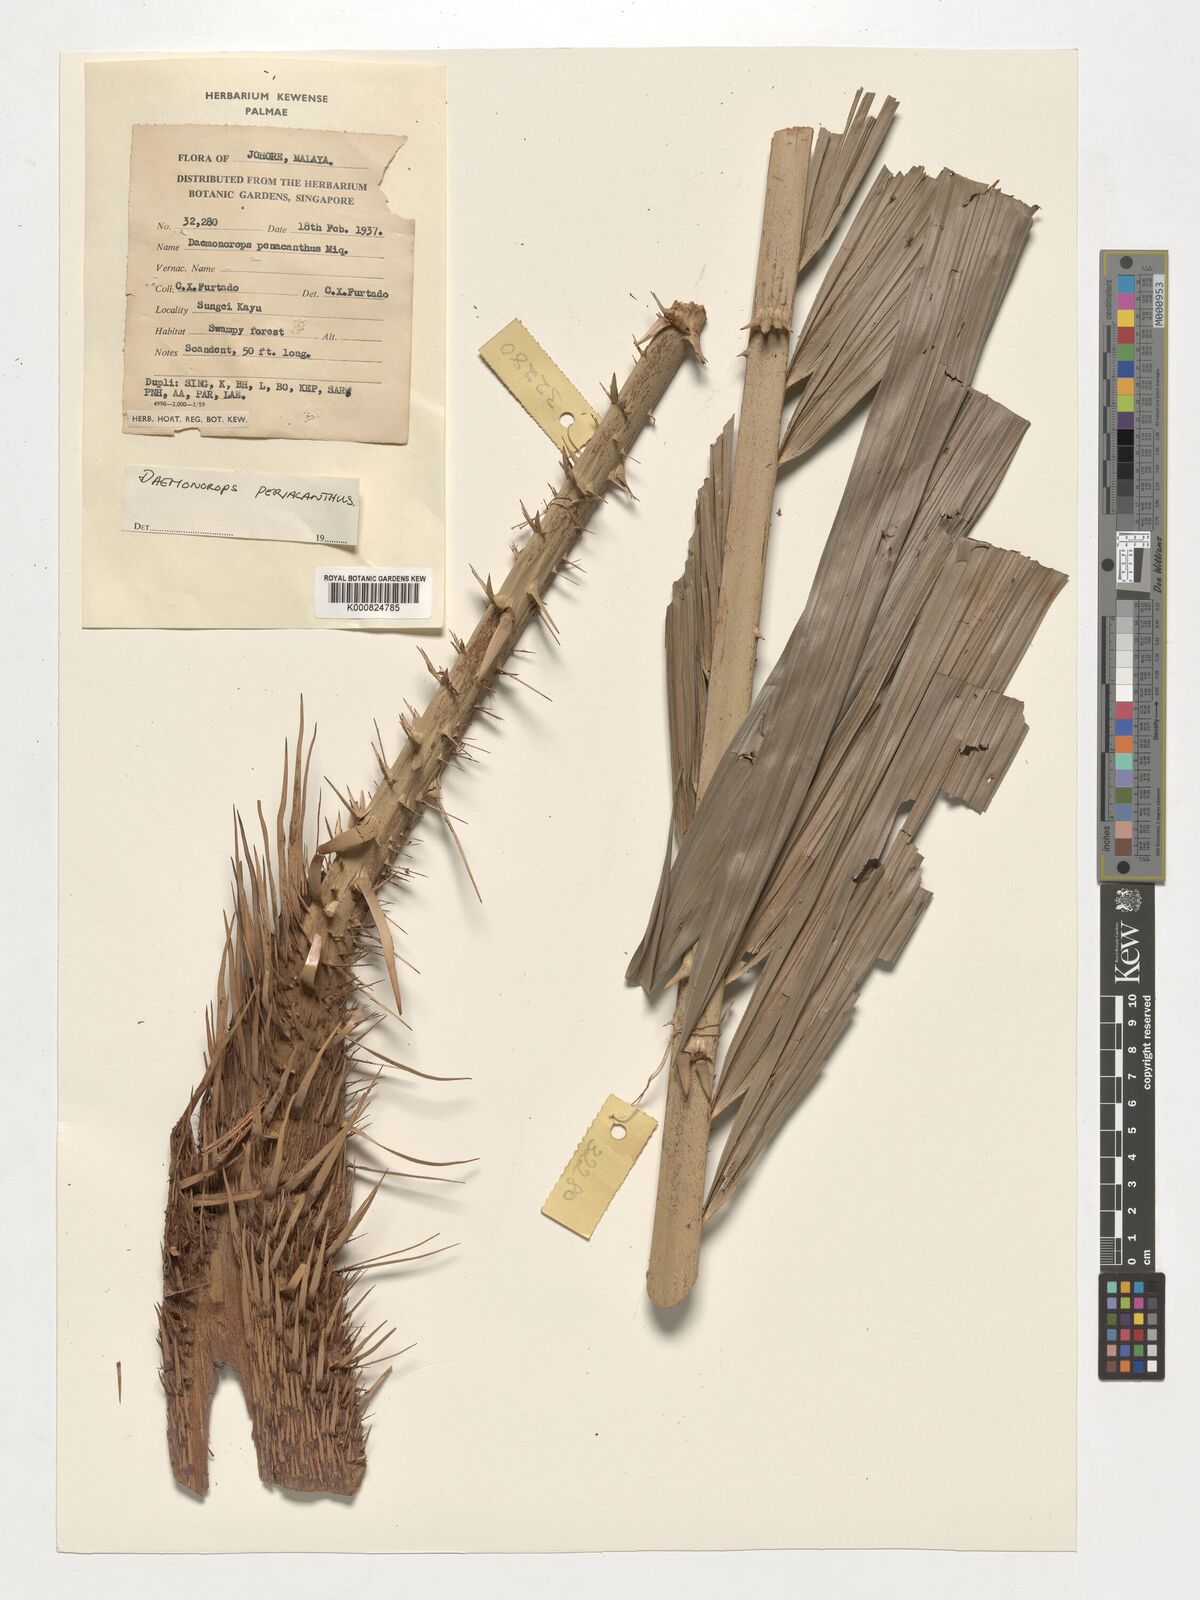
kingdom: Plantae
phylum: Tracheophyta
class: Liliopsida
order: Arecales
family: Arecaceae
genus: Calamus
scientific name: Calamus periacanthus
